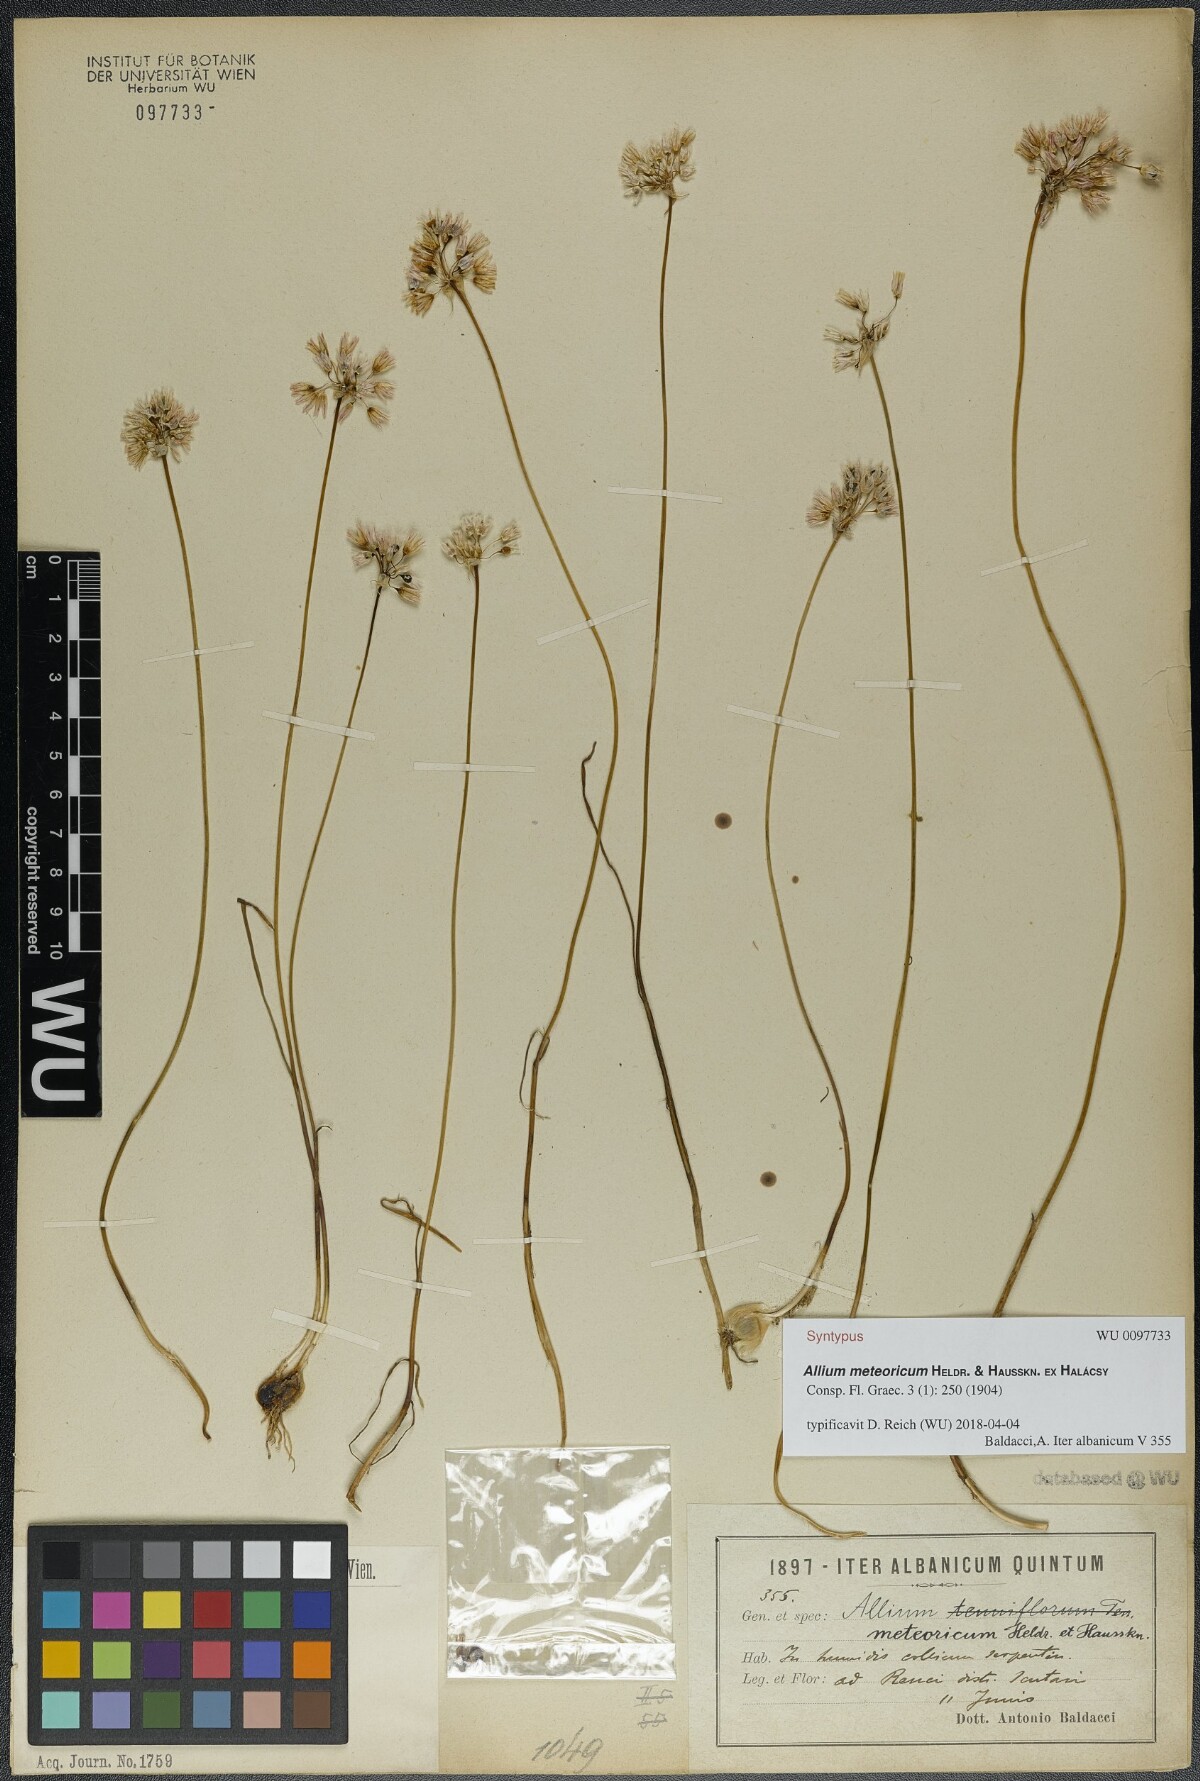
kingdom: Plantae
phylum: Tracheophyta
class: Liliopsida
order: Asparagales
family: Amaryllidaceae
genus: Allium
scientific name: Allium meteoricum
